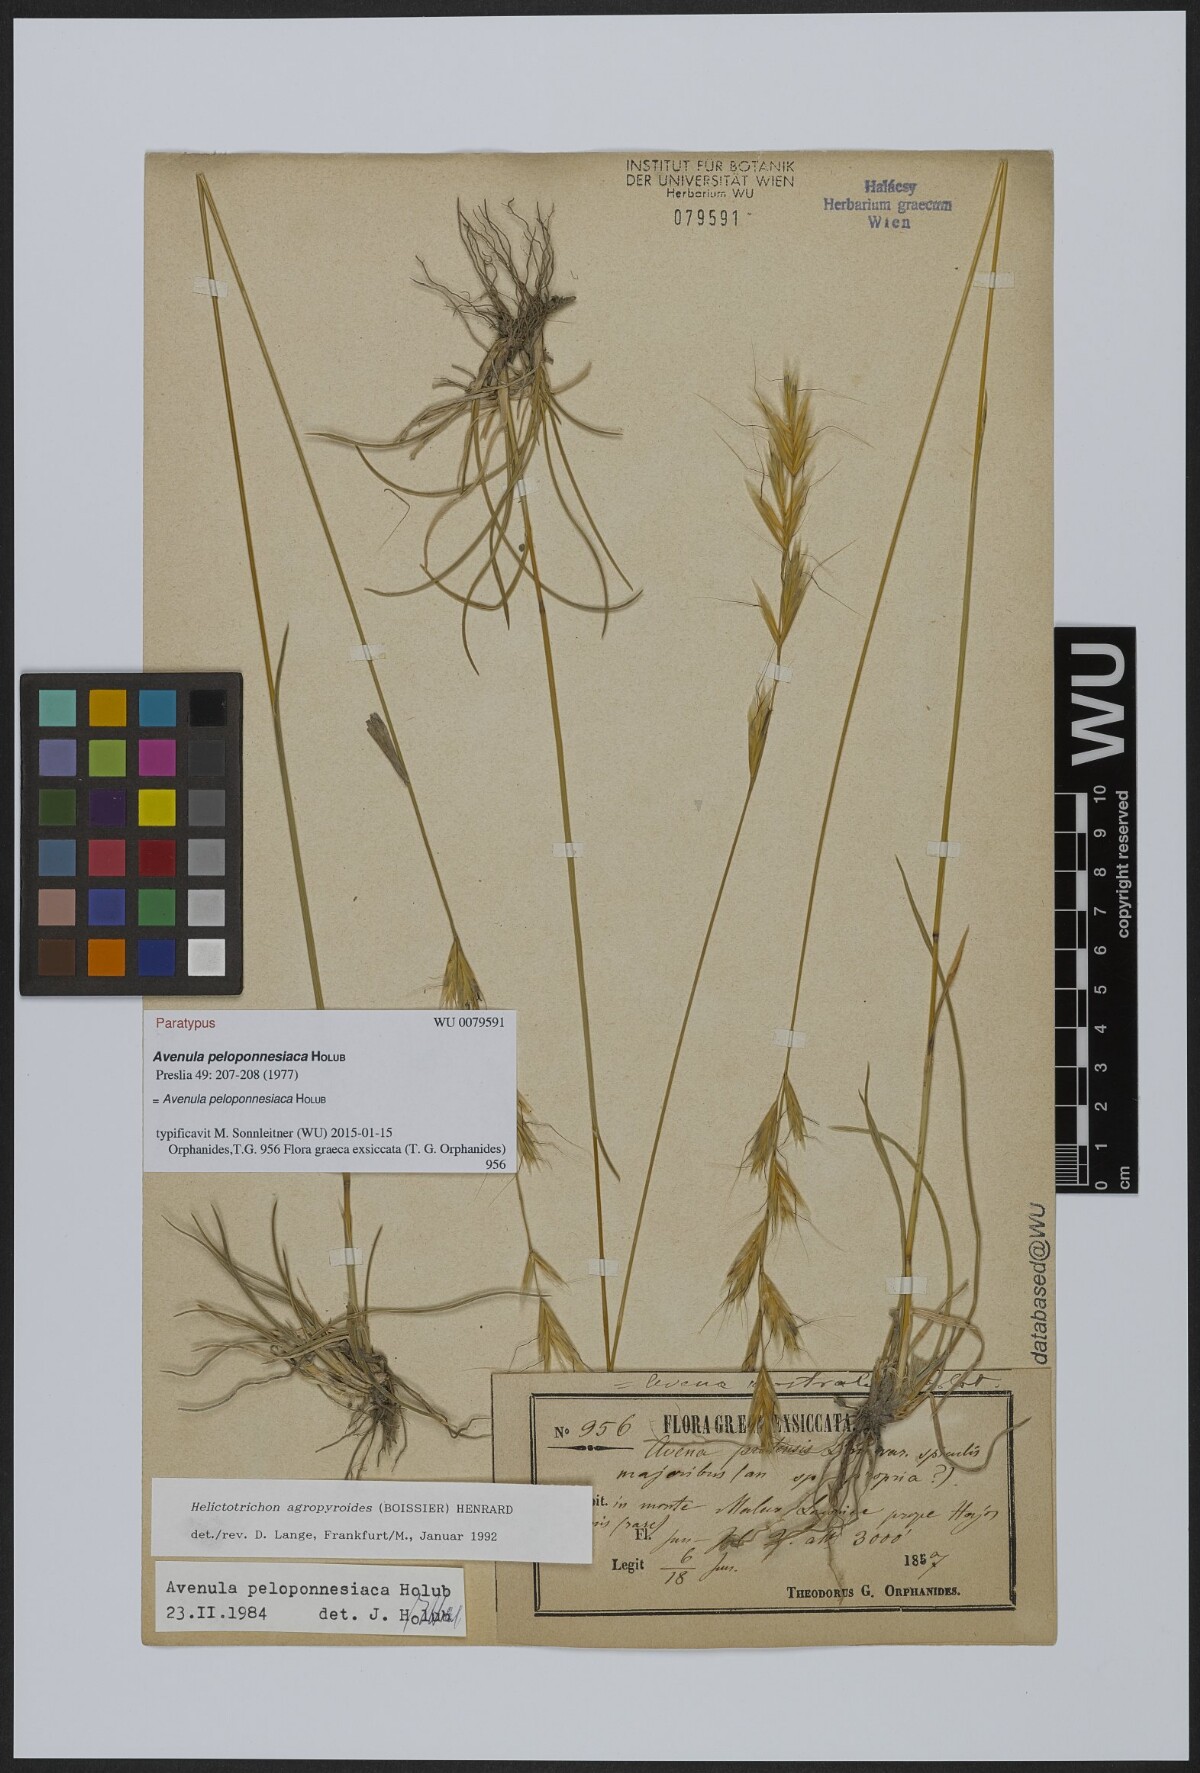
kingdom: Plantae
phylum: Tracheophyta
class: Liliopsida
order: Poales
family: Poaceae
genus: Helictochloa
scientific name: Helictochloa agropyroides
